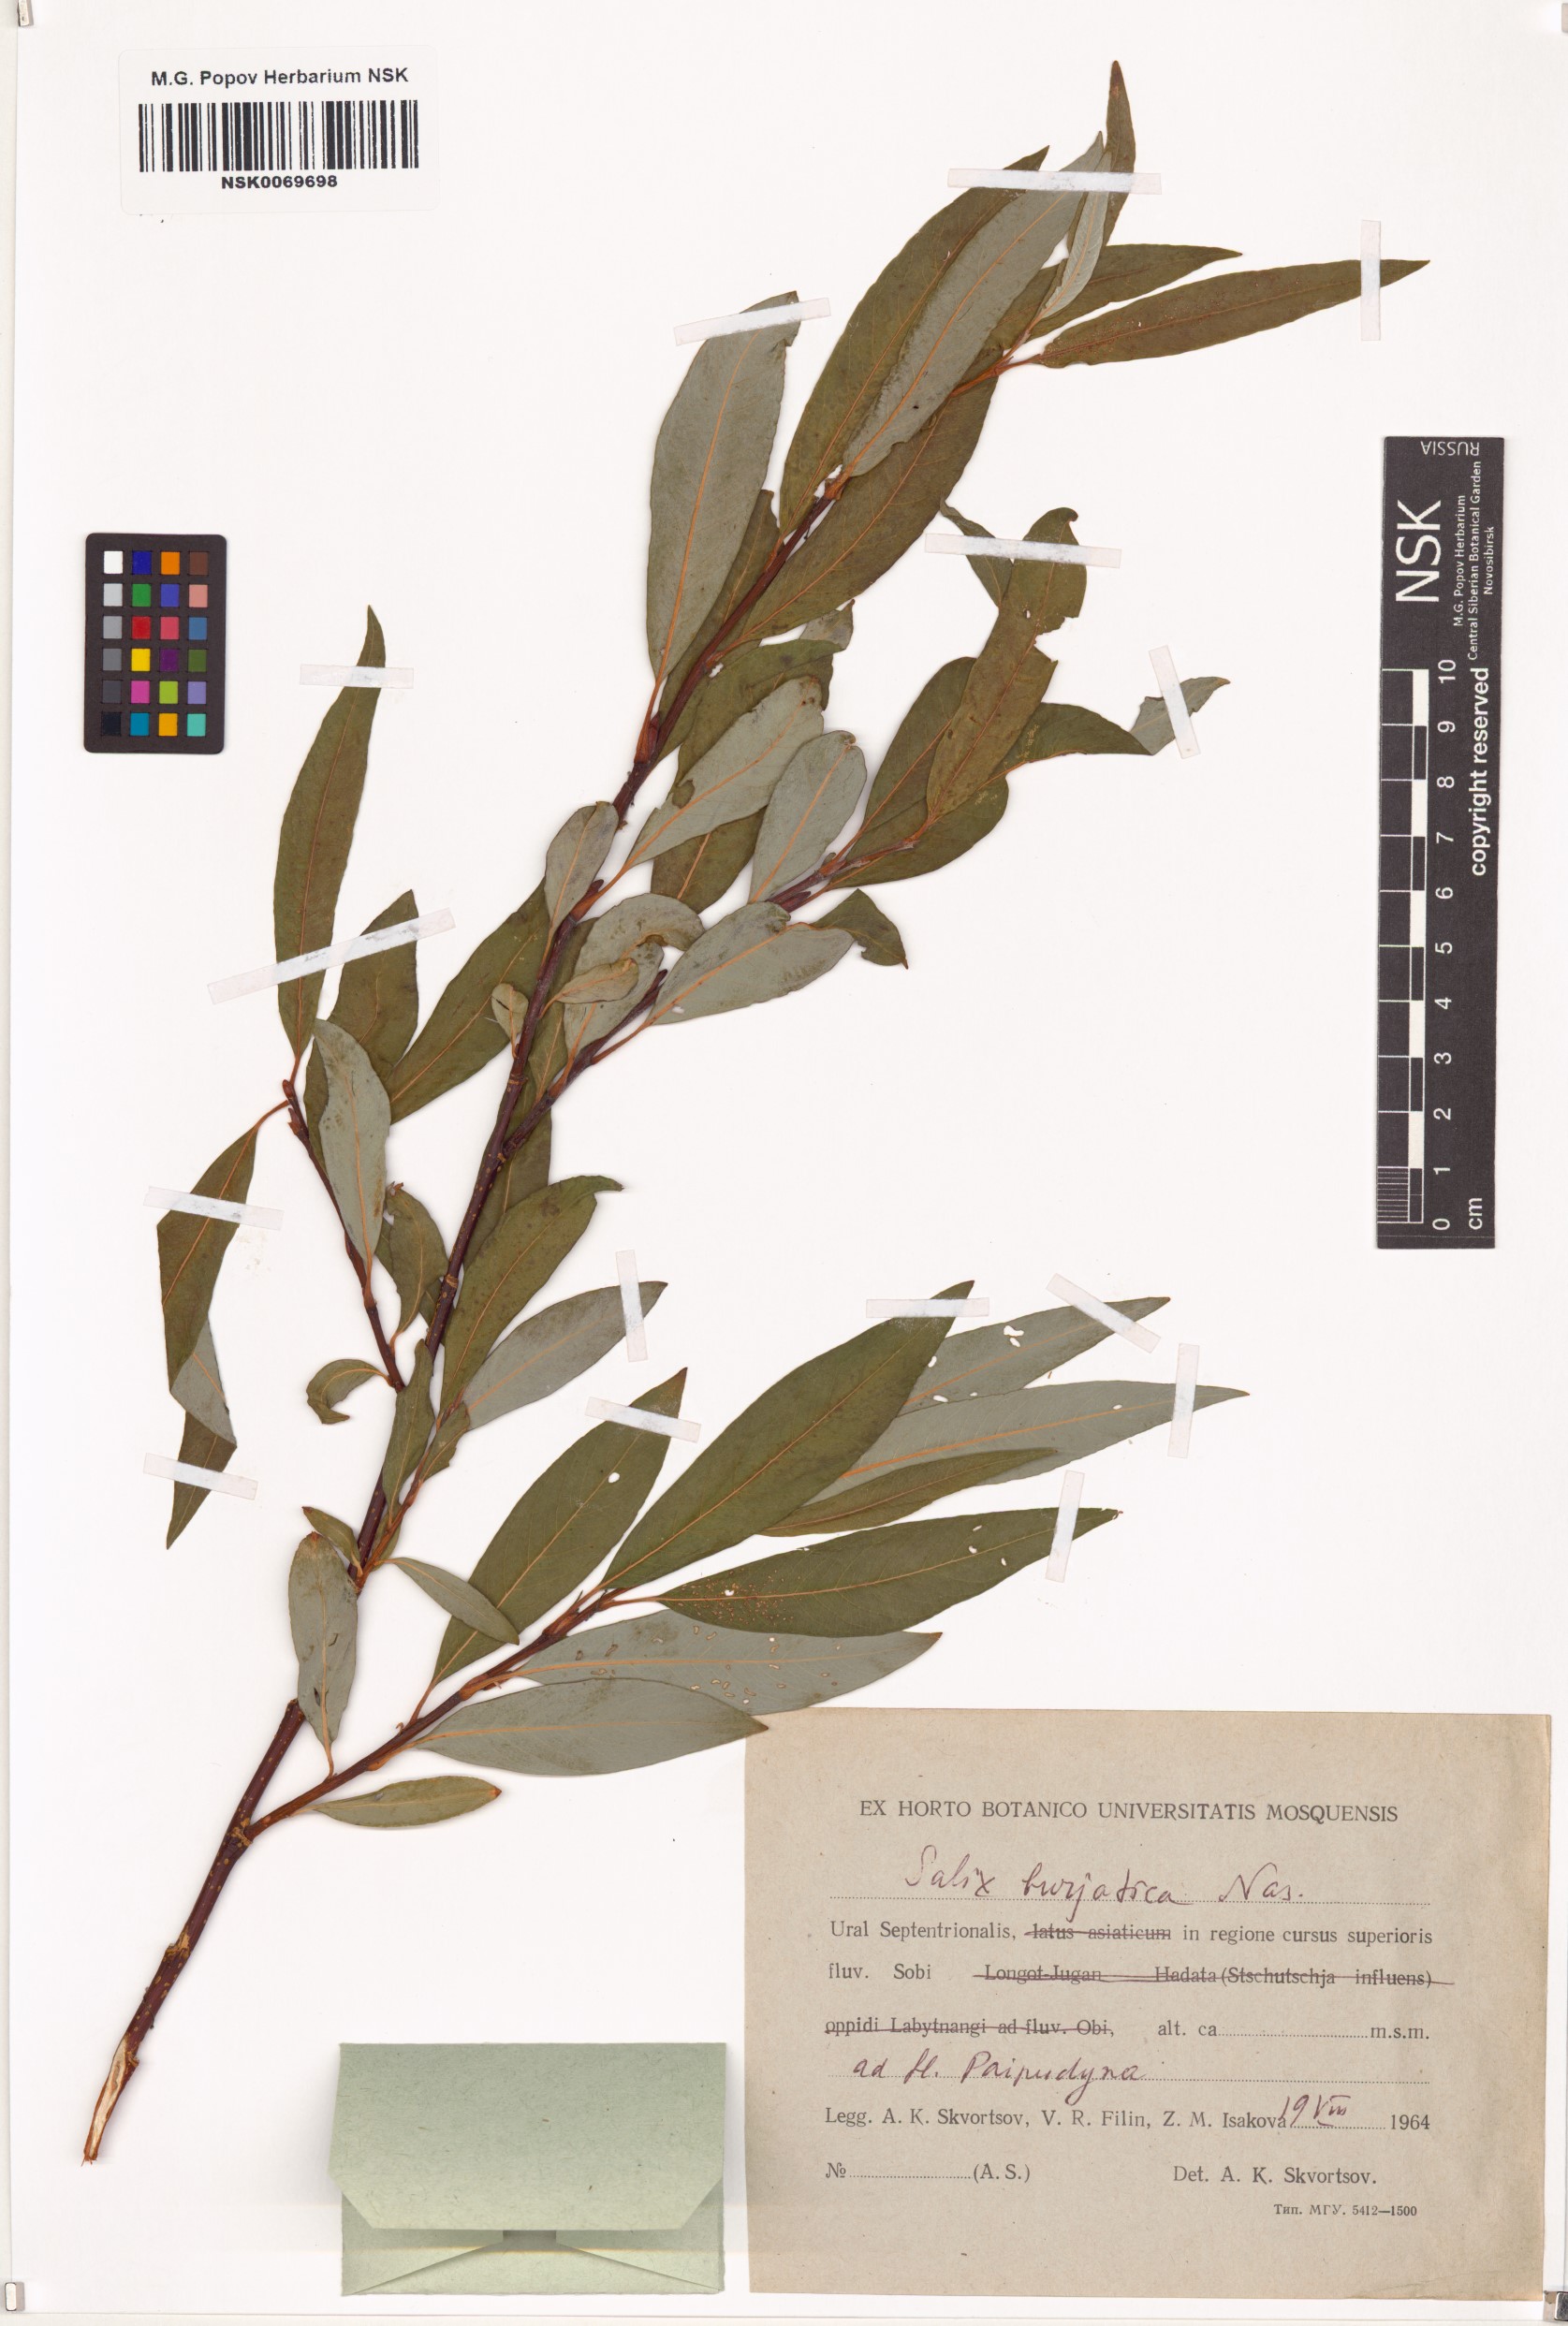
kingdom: Plantae
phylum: Tracheophyta
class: Magnoliopsida
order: Malpighiales
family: Salicaceae
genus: Salix
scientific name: Salix gmelinii
